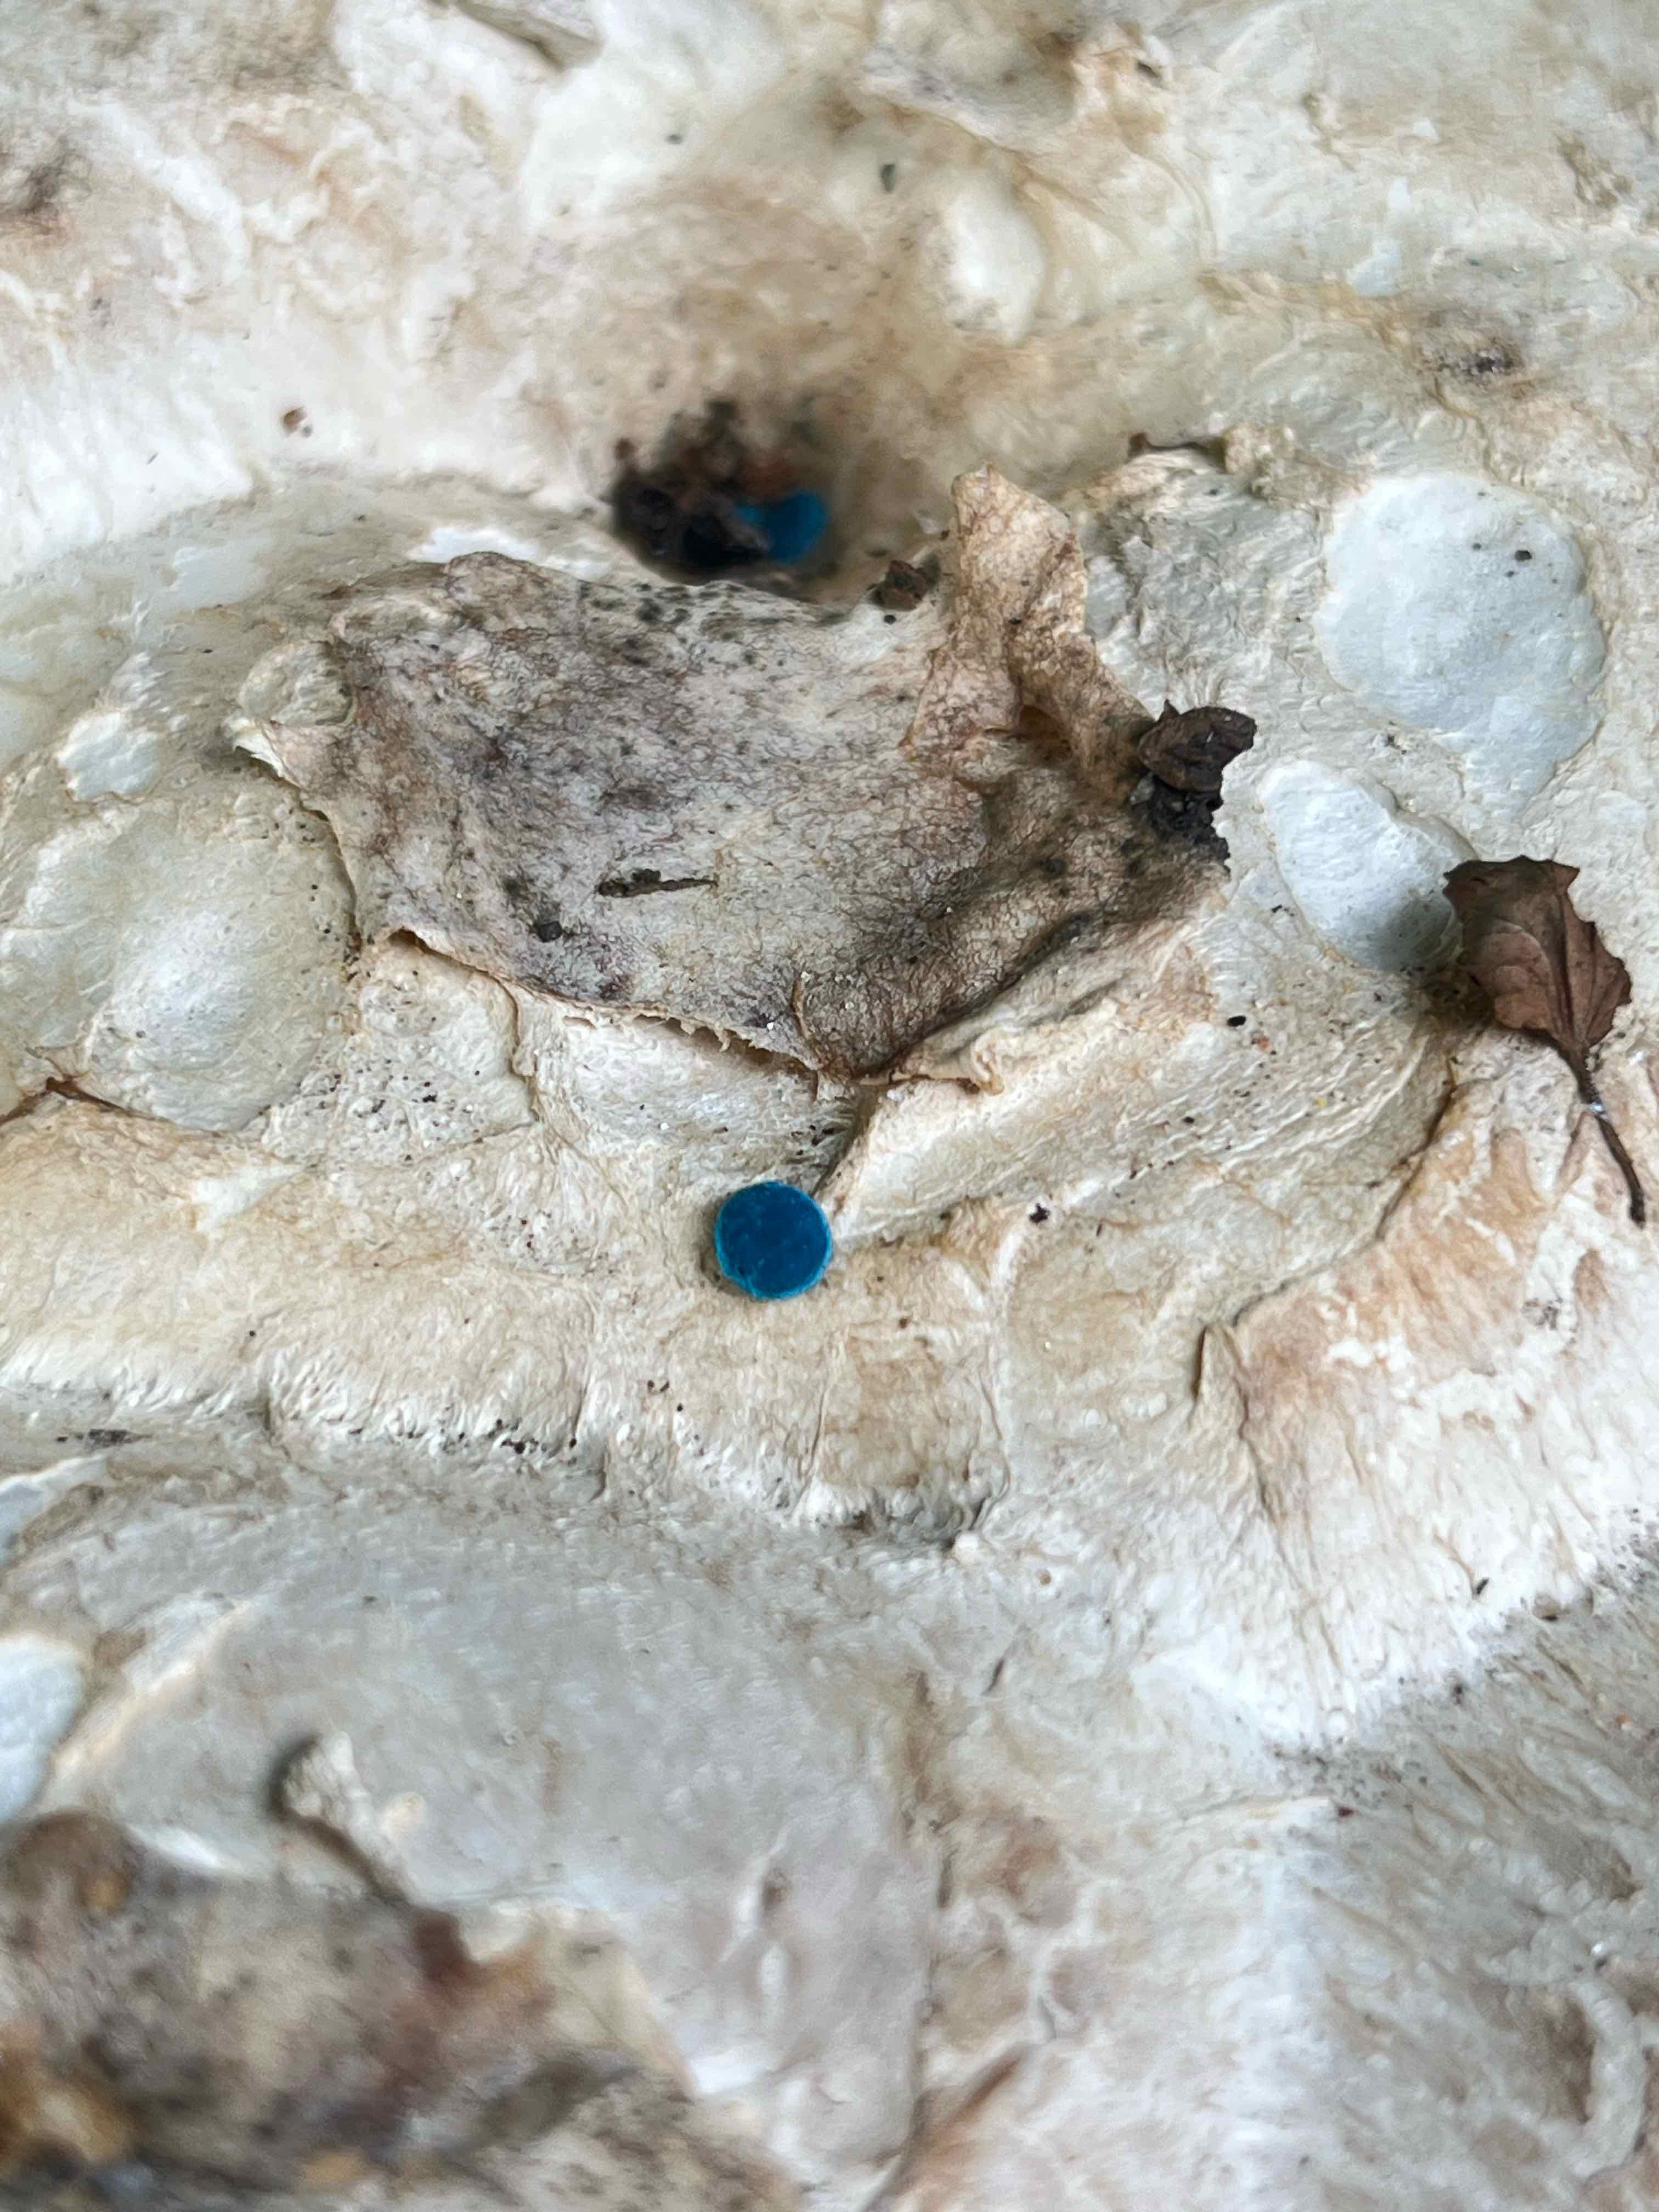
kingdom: Fungi
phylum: Basidiomycota
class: Agaricomycetes
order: Agaricales
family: Lycoperdaceae
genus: Calvatia
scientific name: Calvatia gigantea
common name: kæmpestøvbold
